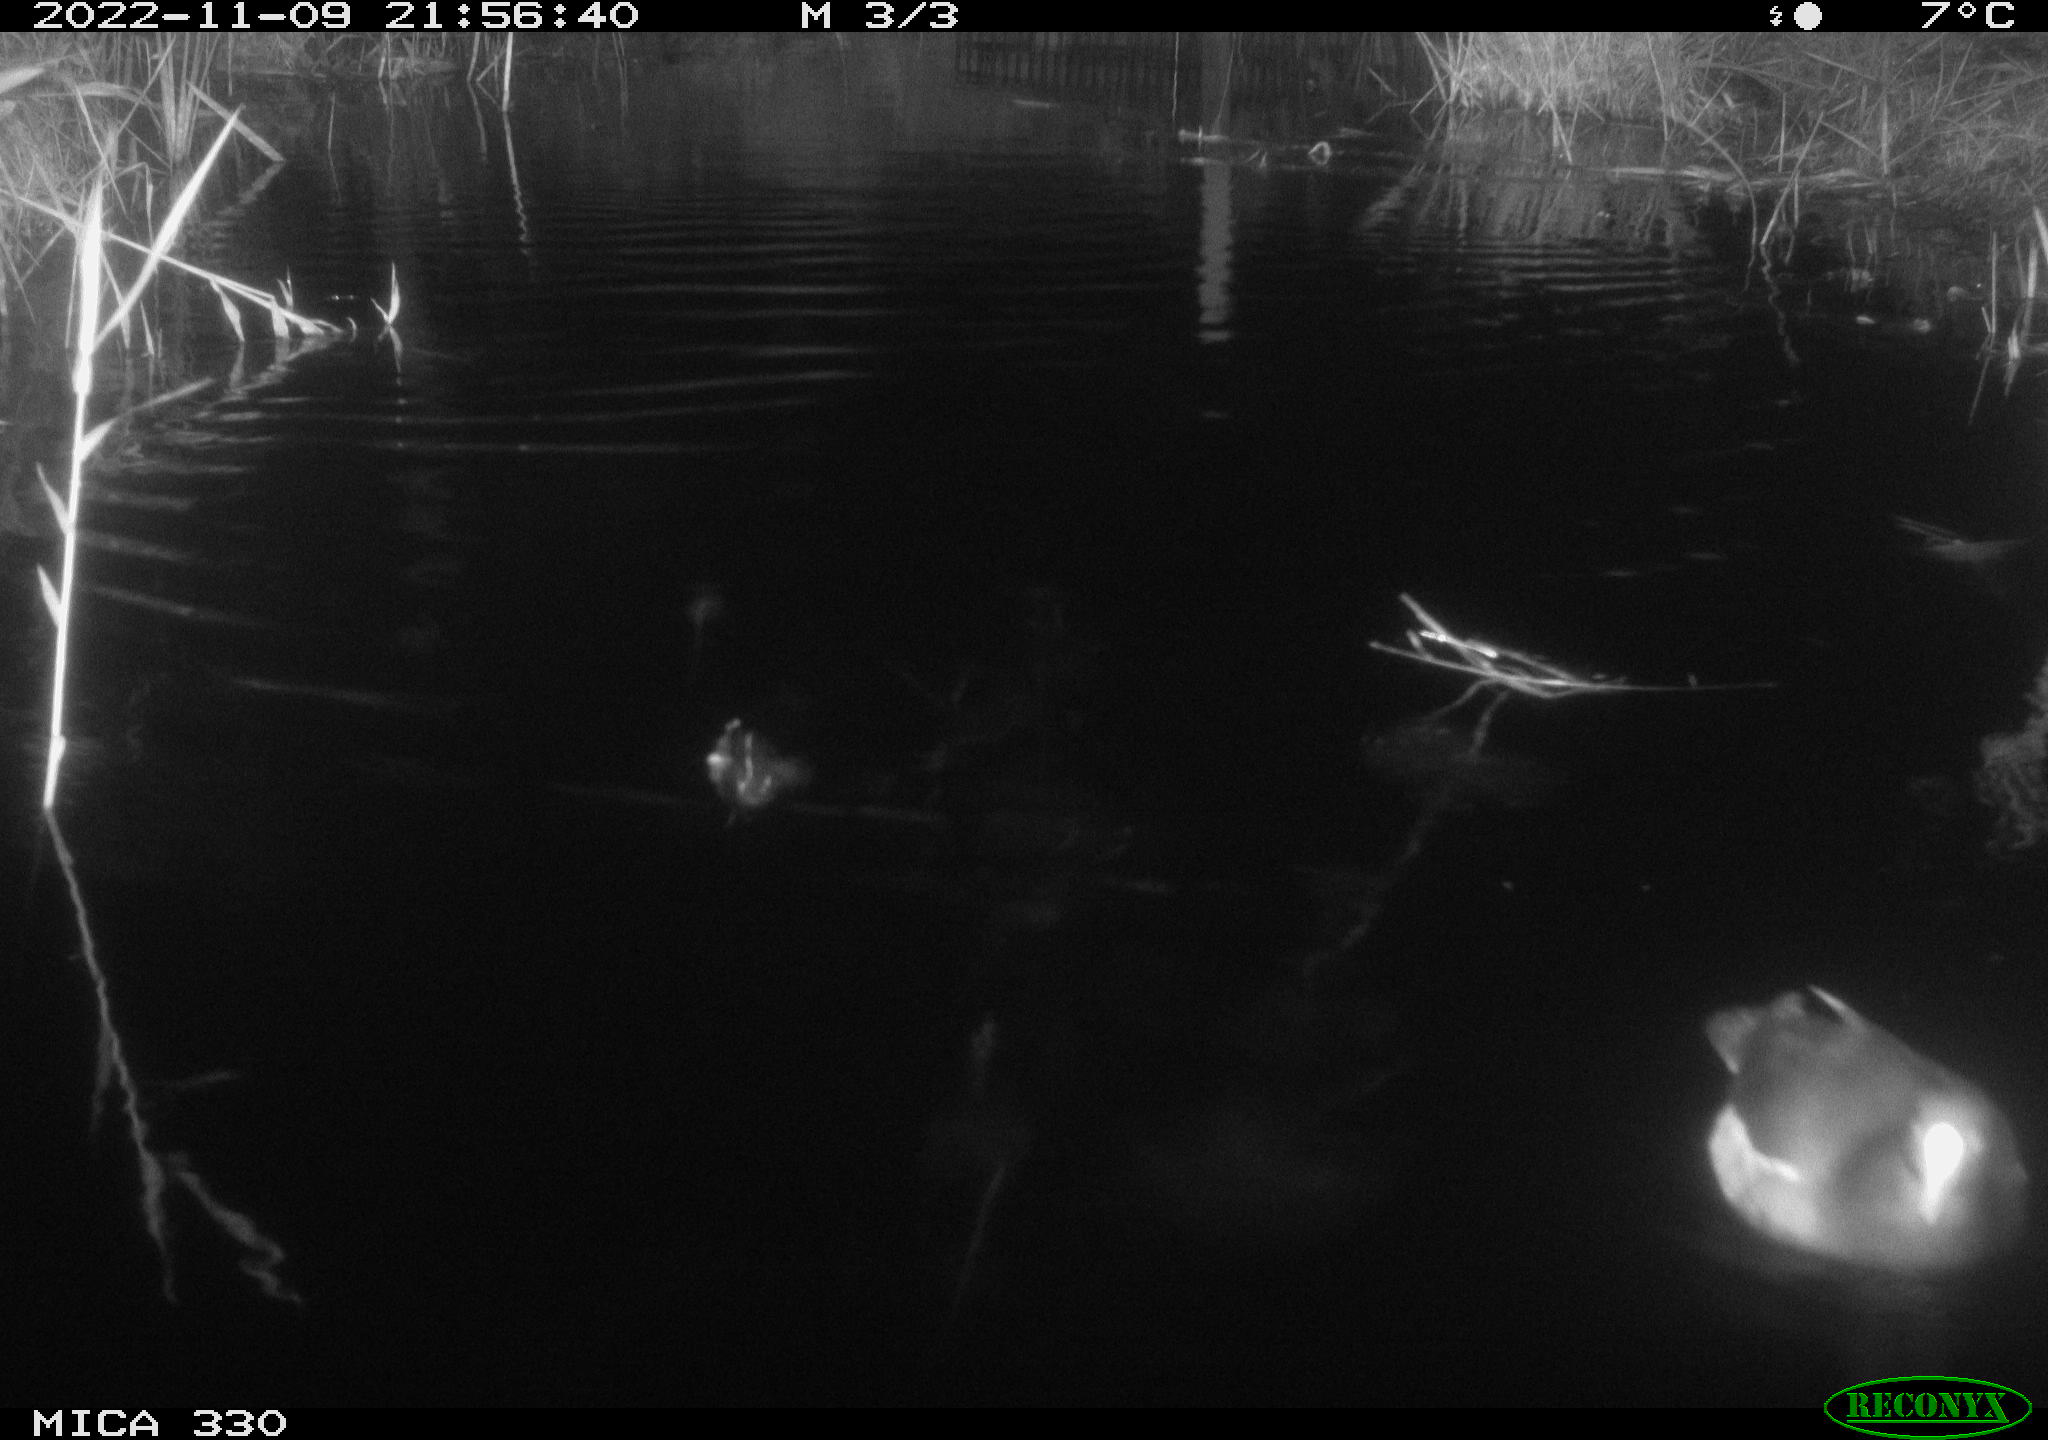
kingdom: Animalia
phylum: Chordata
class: Aves
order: Gruiformes
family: Rallidae
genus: Gallinula
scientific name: Gallinula chloropus
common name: Common moorhen
